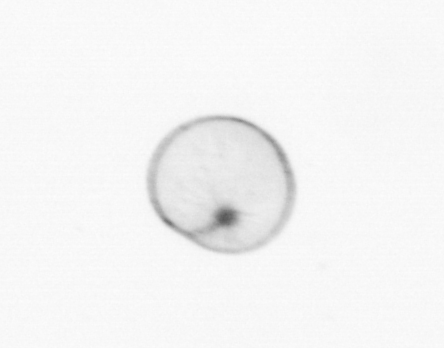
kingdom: Chromista
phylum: Myzozoa
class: Dinophyceae
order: Noctilucales
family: Noctilucaceae
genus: Noctiluca
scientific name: Noctiluca scintillans
